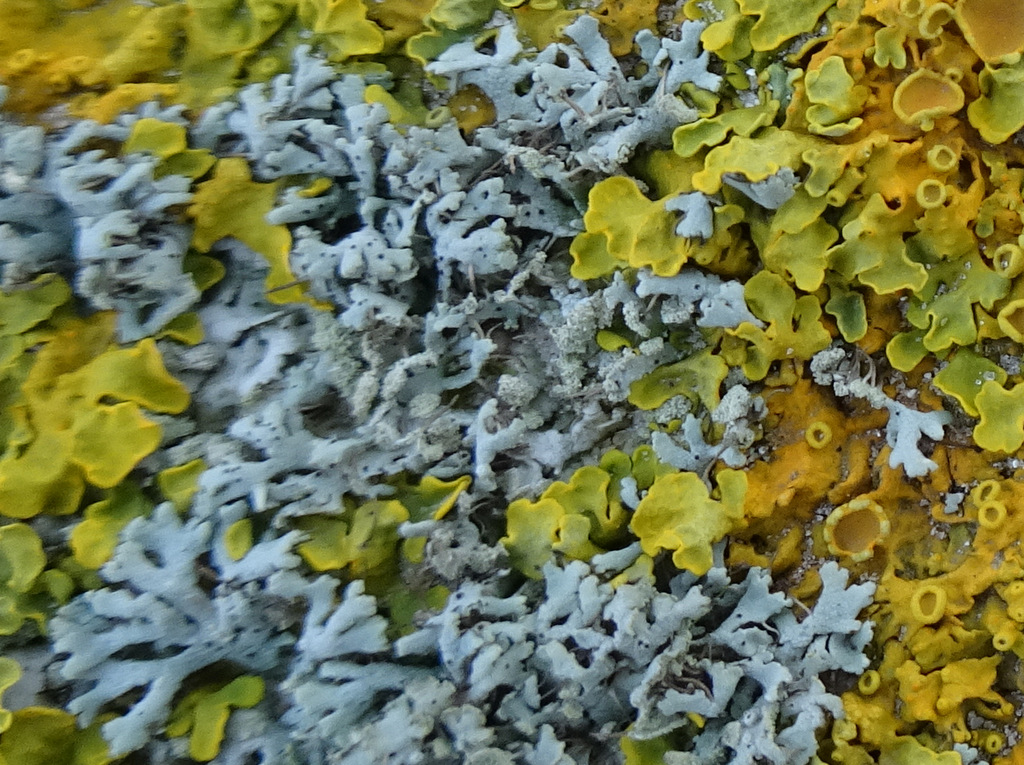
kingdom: Fungi
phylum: Ascomycota
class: Lecanoromycetes
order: Caliciales
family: Physciaceae
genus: Physcia
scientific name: Physcia tenella
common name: spæd rosetlav
